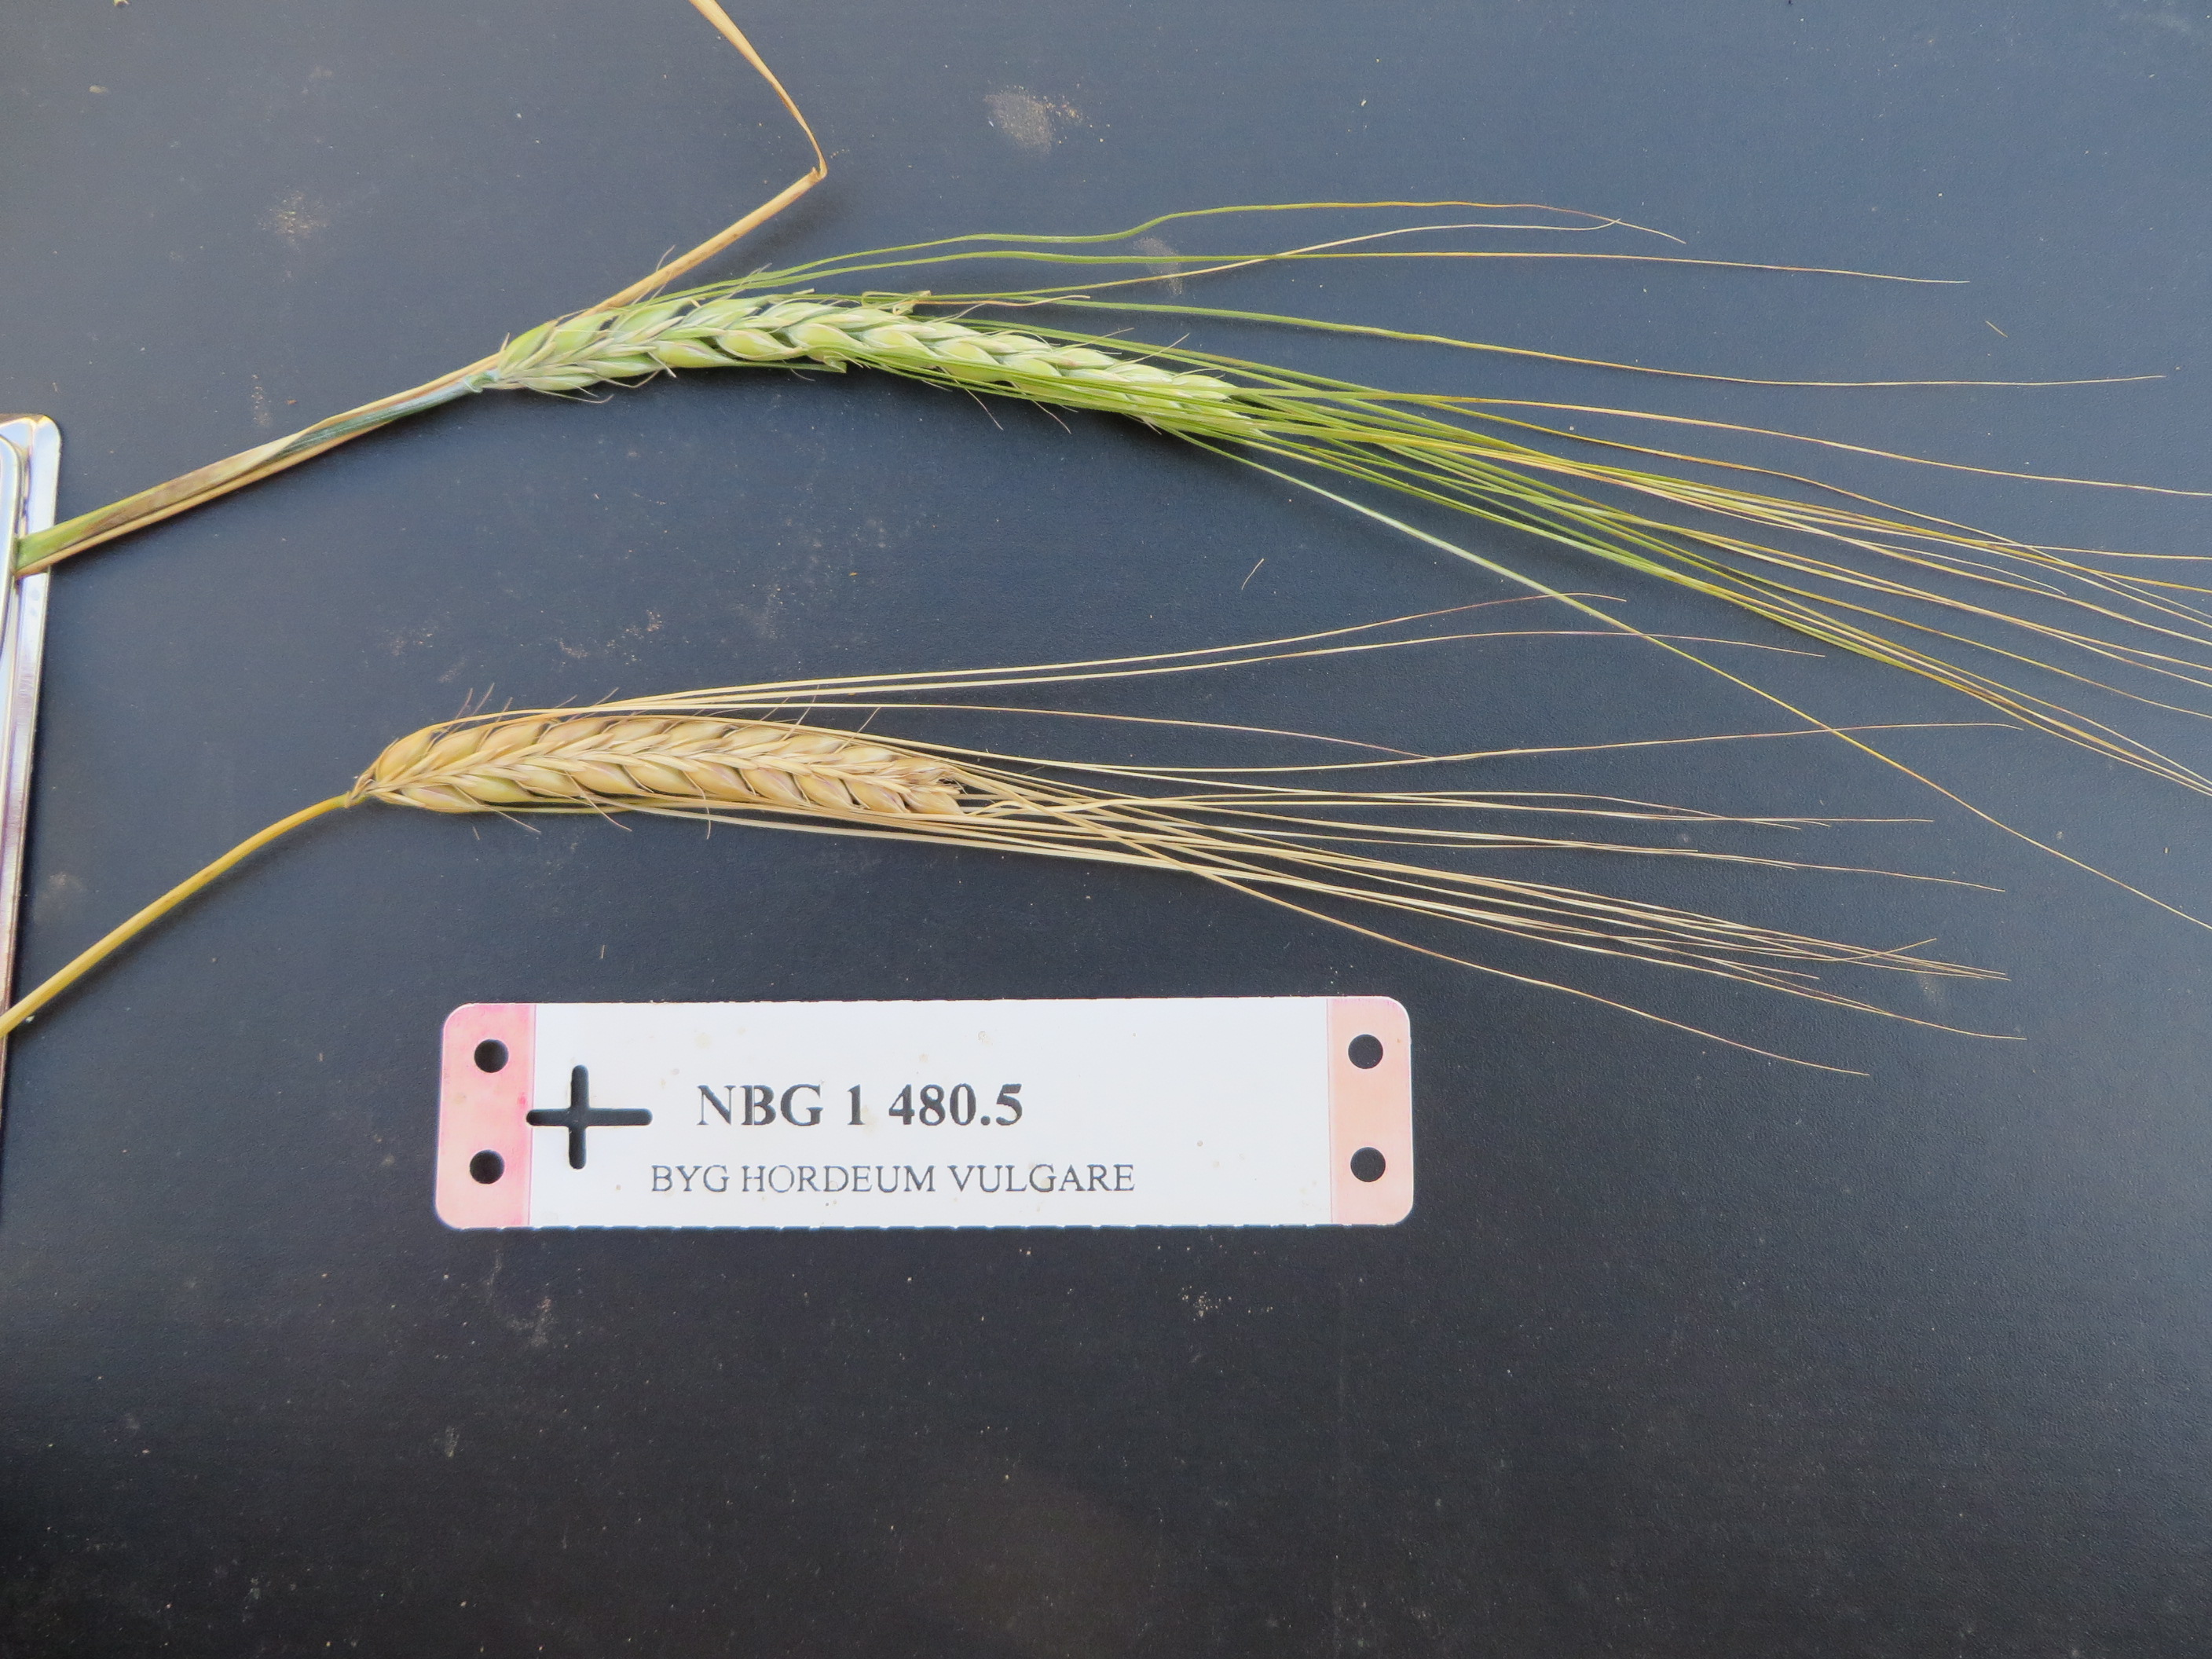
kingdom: Plantae
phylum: Tracheophyta
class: Liliopsida
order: Poales
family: Poaceae
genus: Hordeum
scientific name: Hordeum vulgare
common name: Common barley
